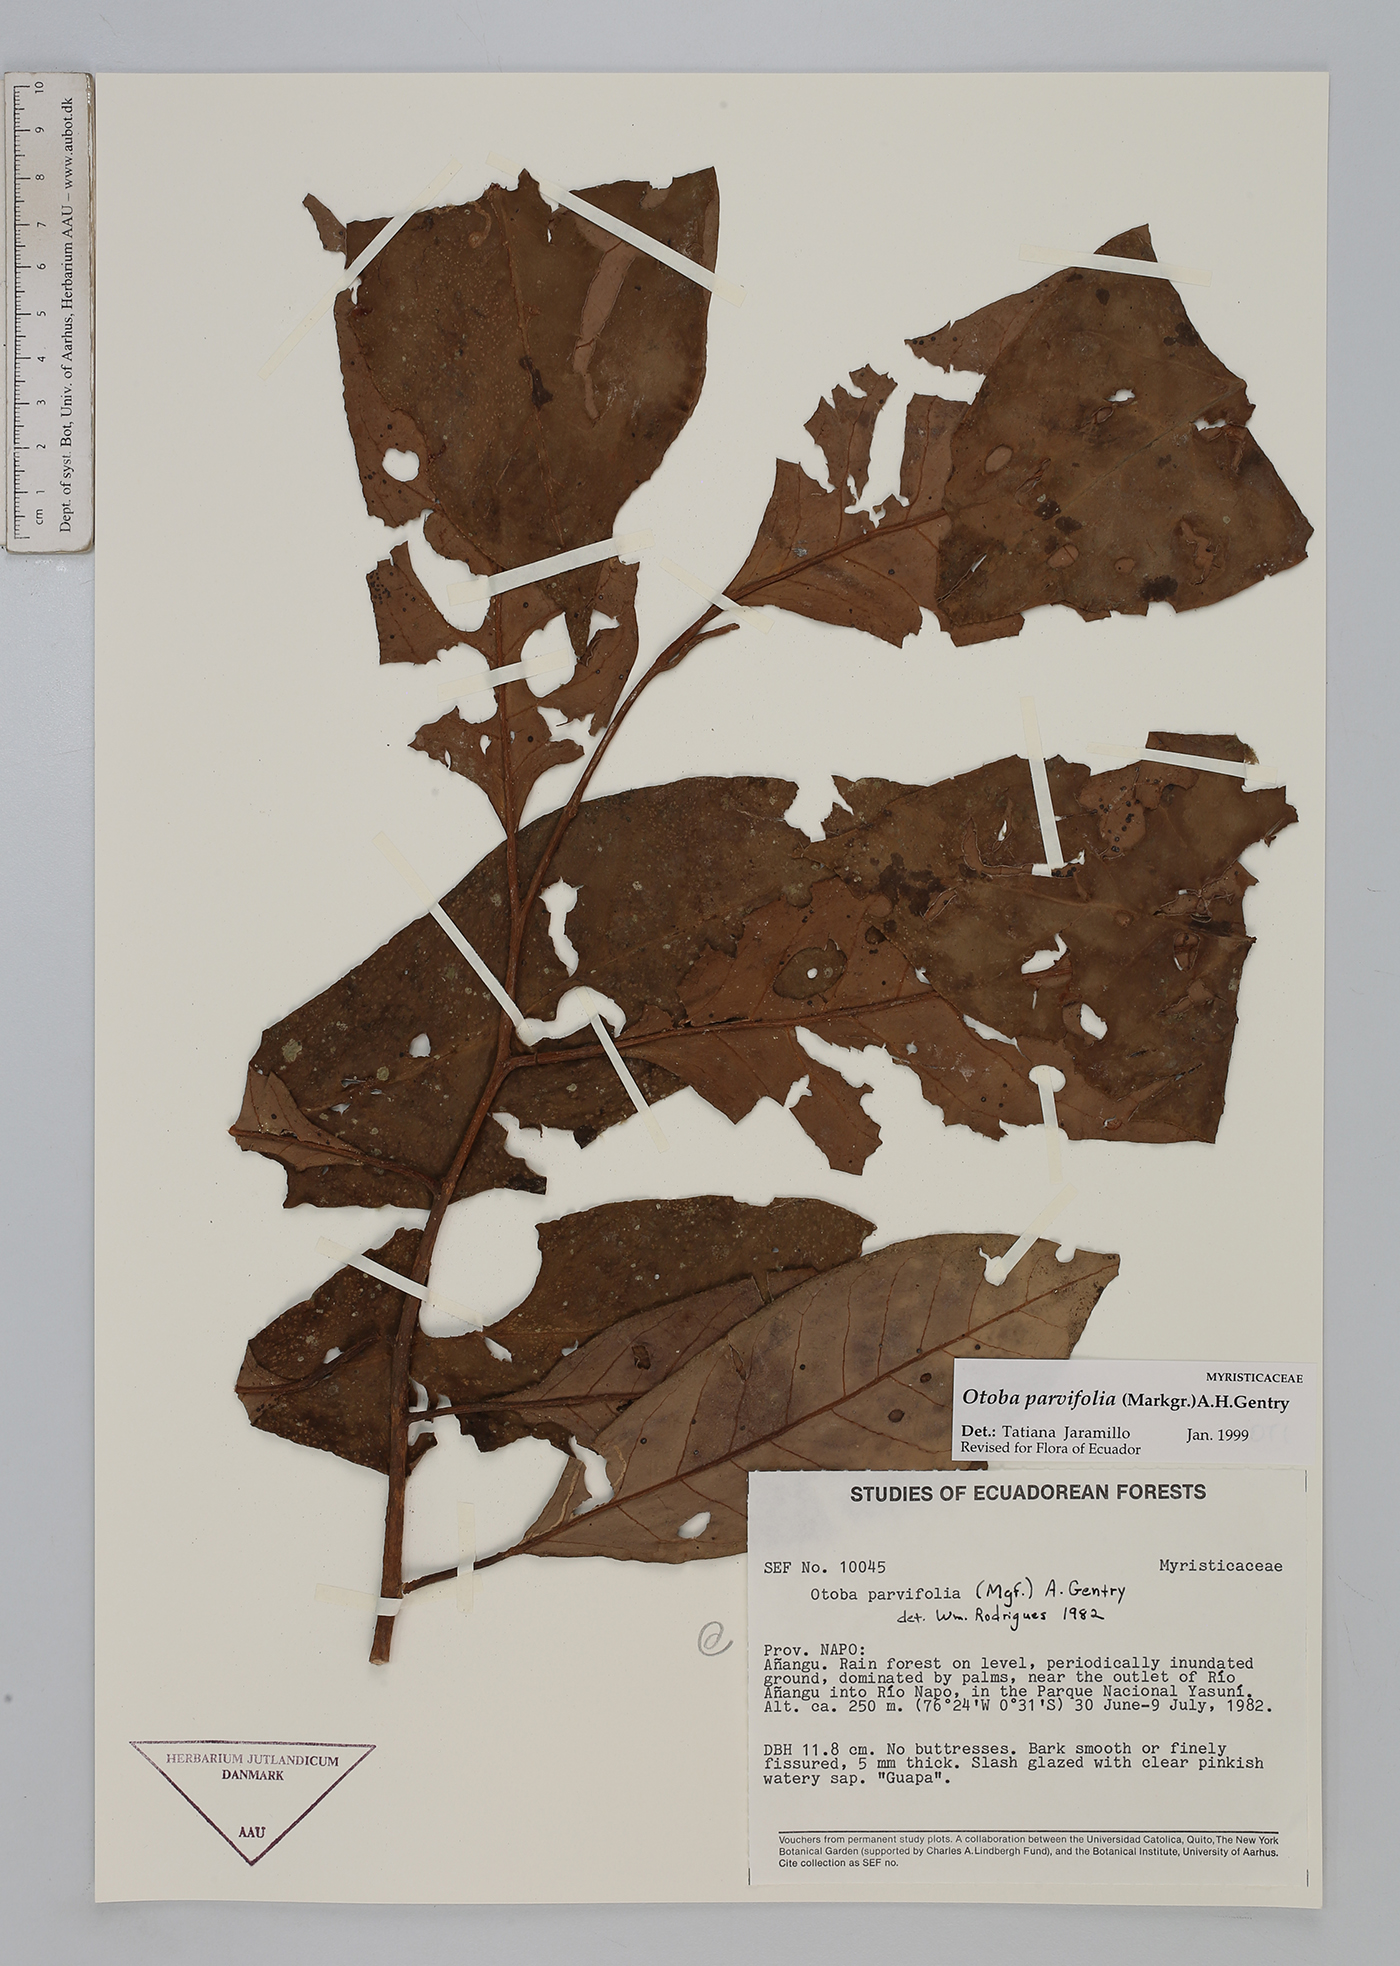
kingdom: Plantae
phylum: Tracheophyta
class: Magnoliopsida
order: Magnoliales
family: Myristicaceae
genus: Otoba
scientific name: Otoba parvifolia
